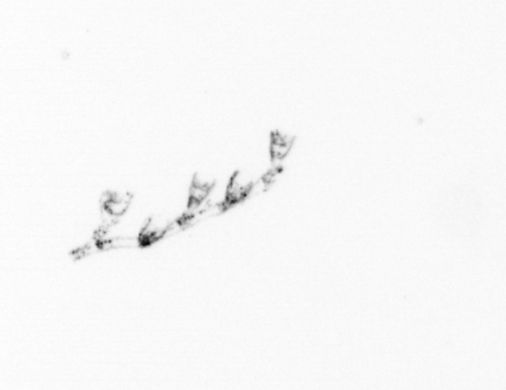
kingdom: Animalia
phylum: Cnidaria
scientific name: Cnidaria
